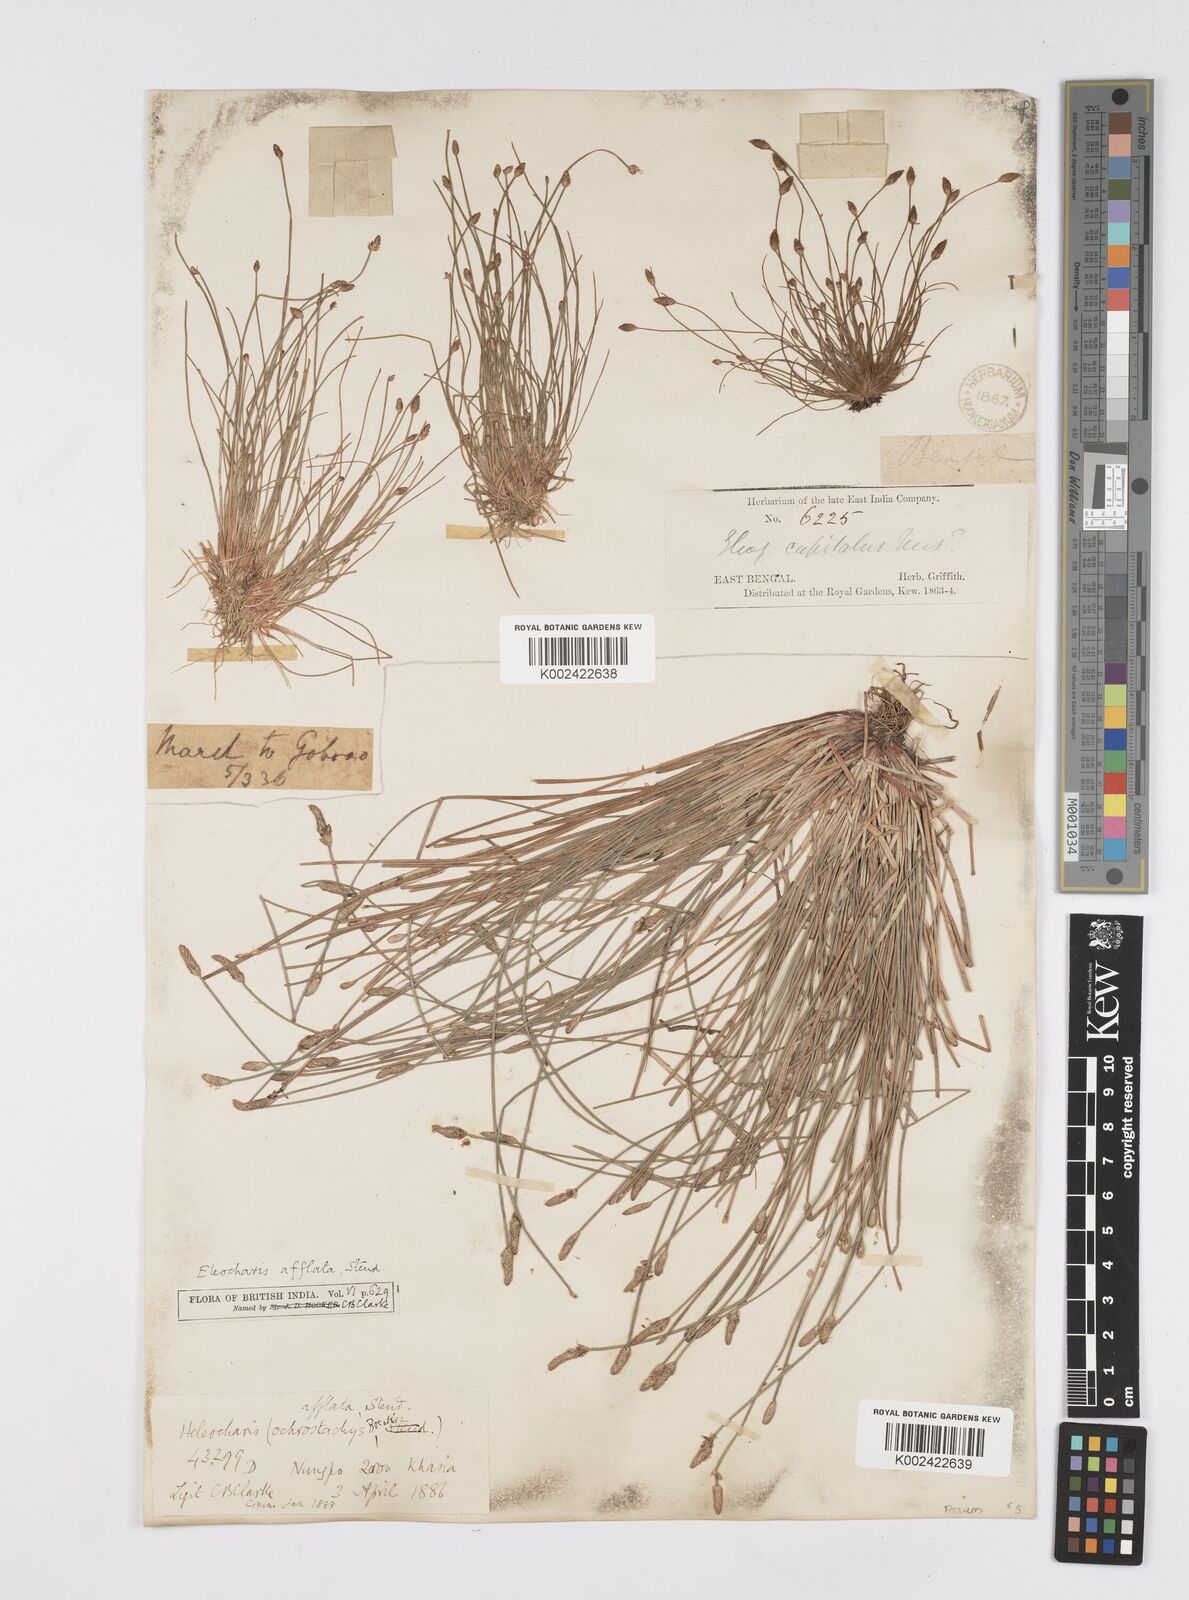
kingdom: Plantae
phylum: Tracheophyta
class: Liliopsida
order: Poales
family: Cyperaceae
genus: Eleocharis
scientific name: Eleocharis pellucida
